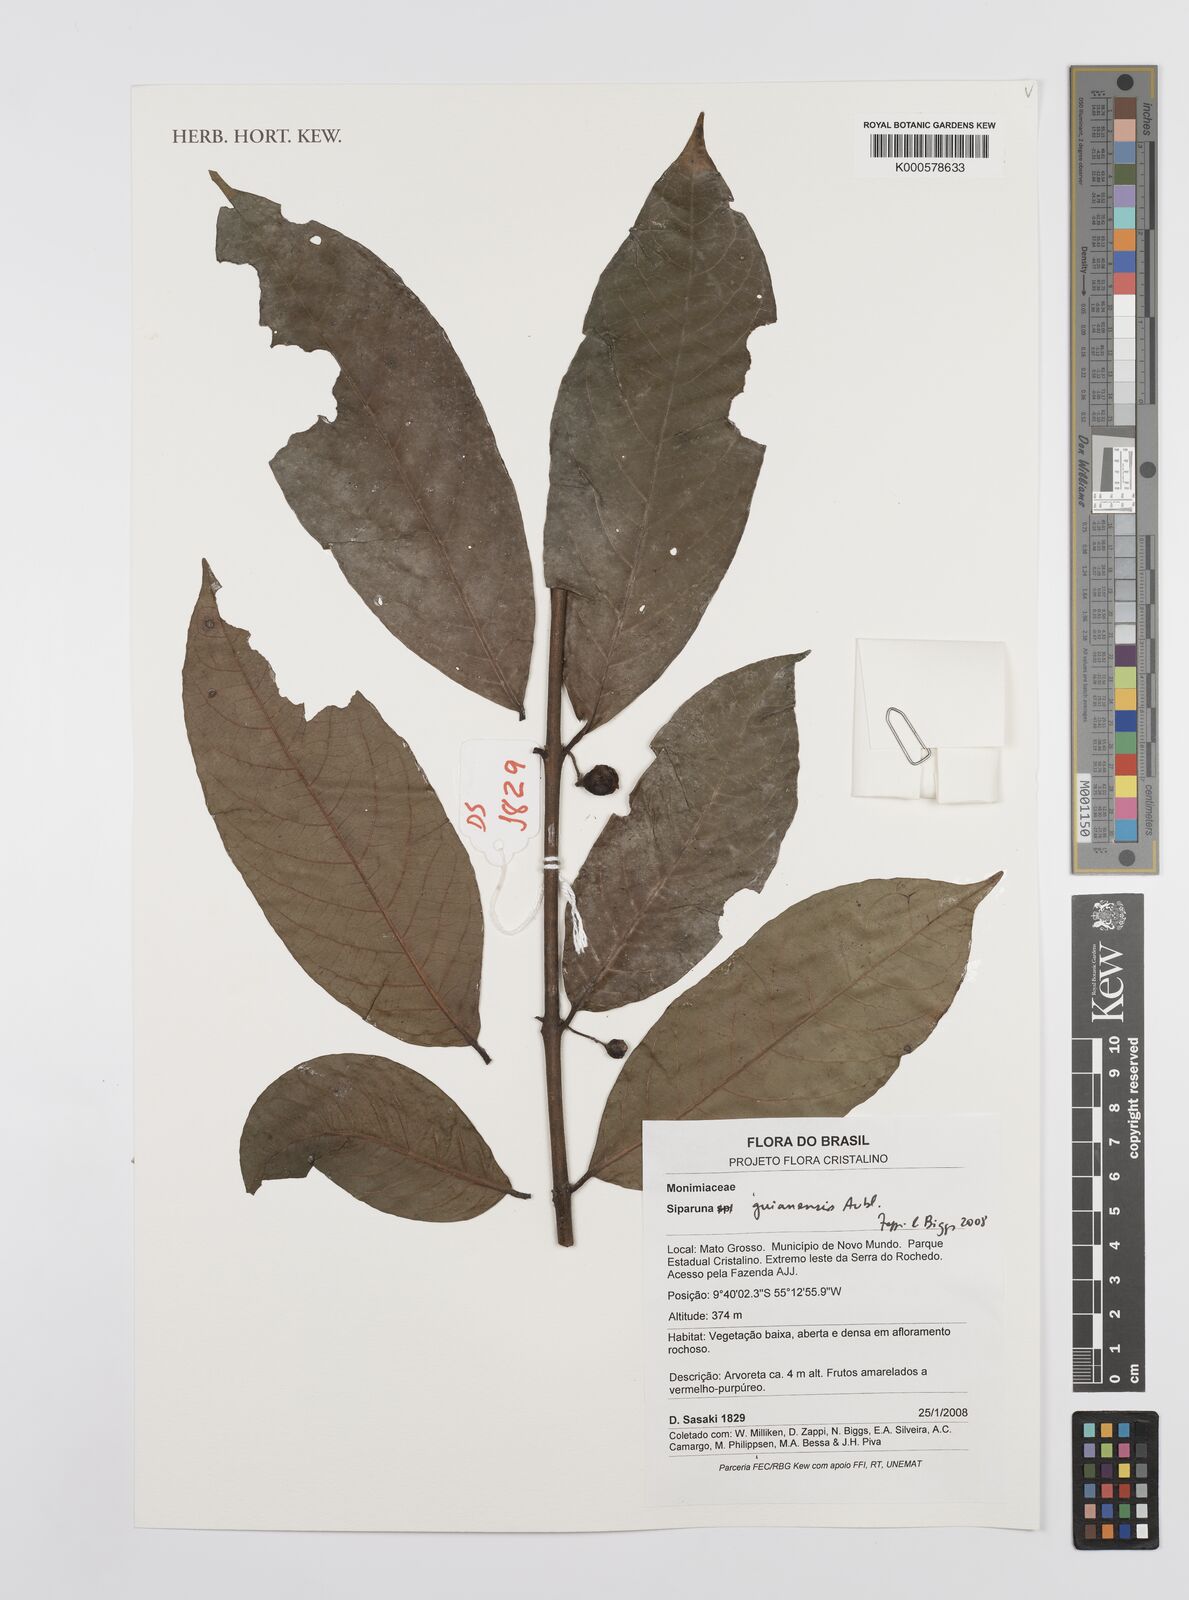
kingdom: Plantae
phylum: Tracheophyta
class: Magnoliopsida
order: Laurales
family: Siparunaceae
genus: Siparuna
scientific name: Siparuna guianensis
